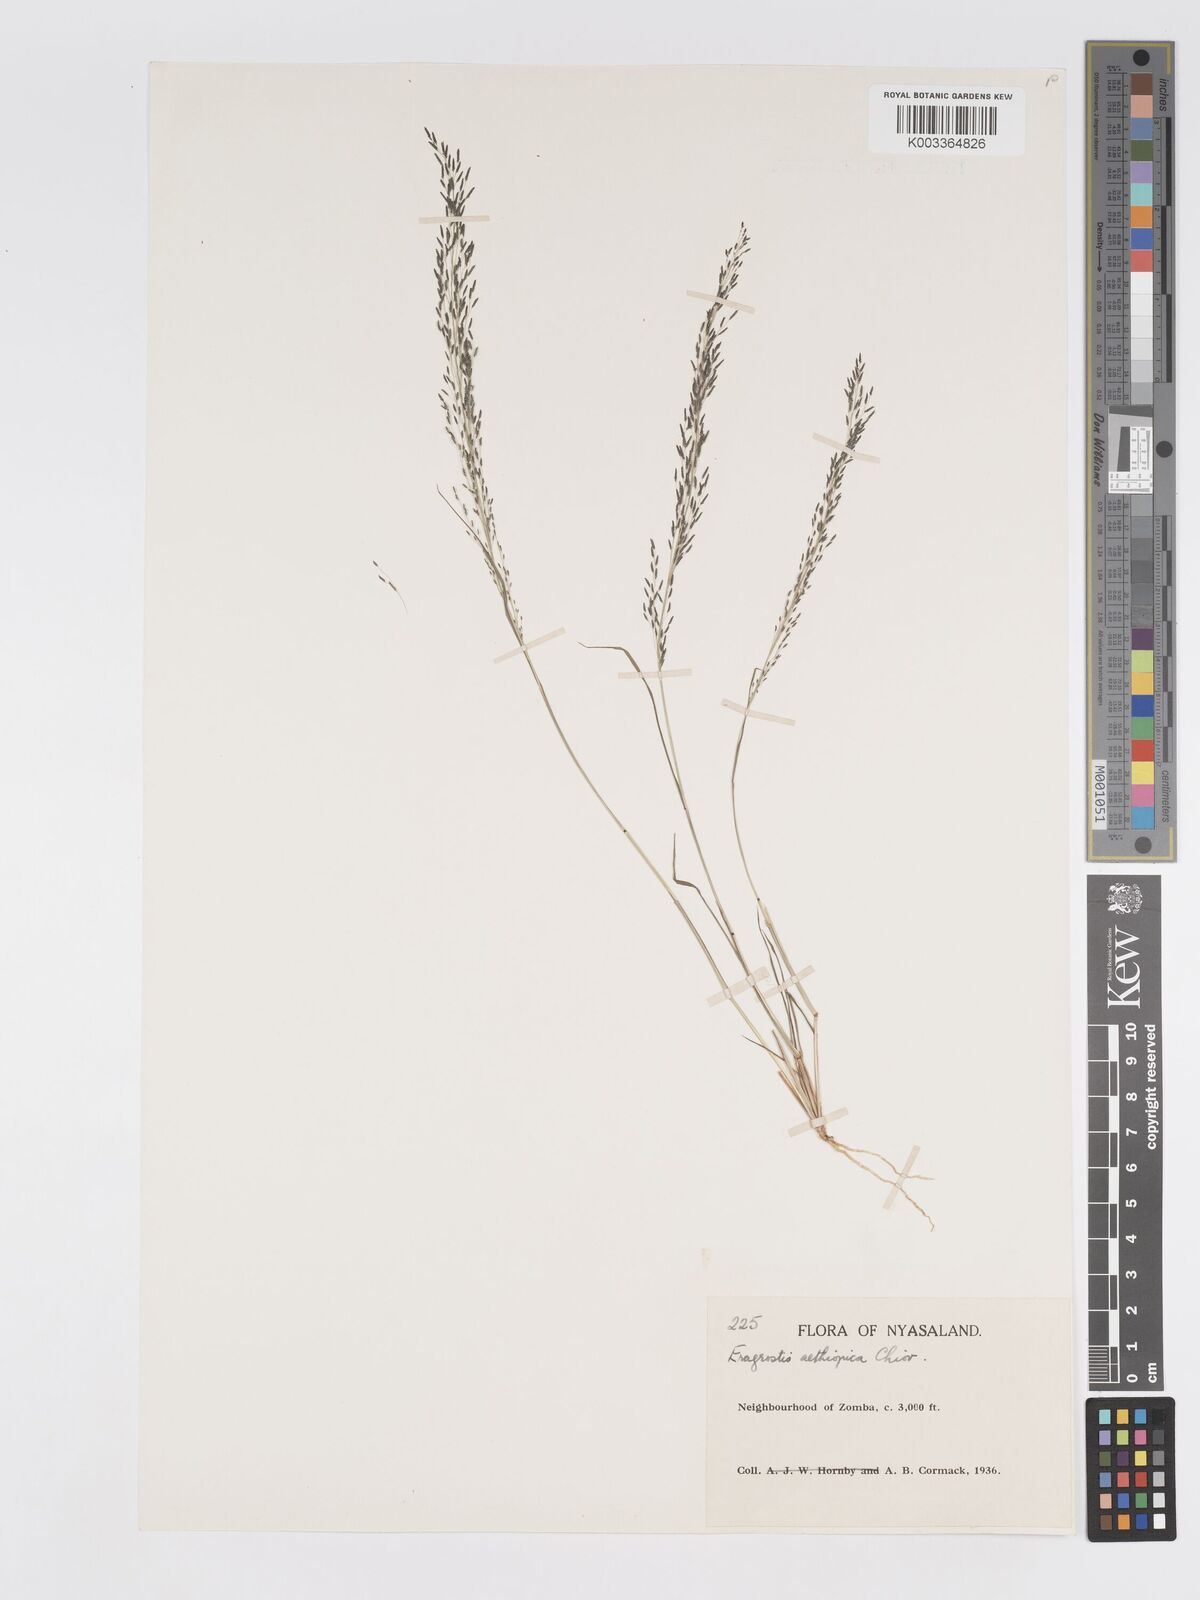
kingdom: Plantae
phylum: Tracheophyta
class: Liliopsida
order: Poales
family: Poaceae
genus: Eragrostis
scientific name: Eragrostis aethiopica
